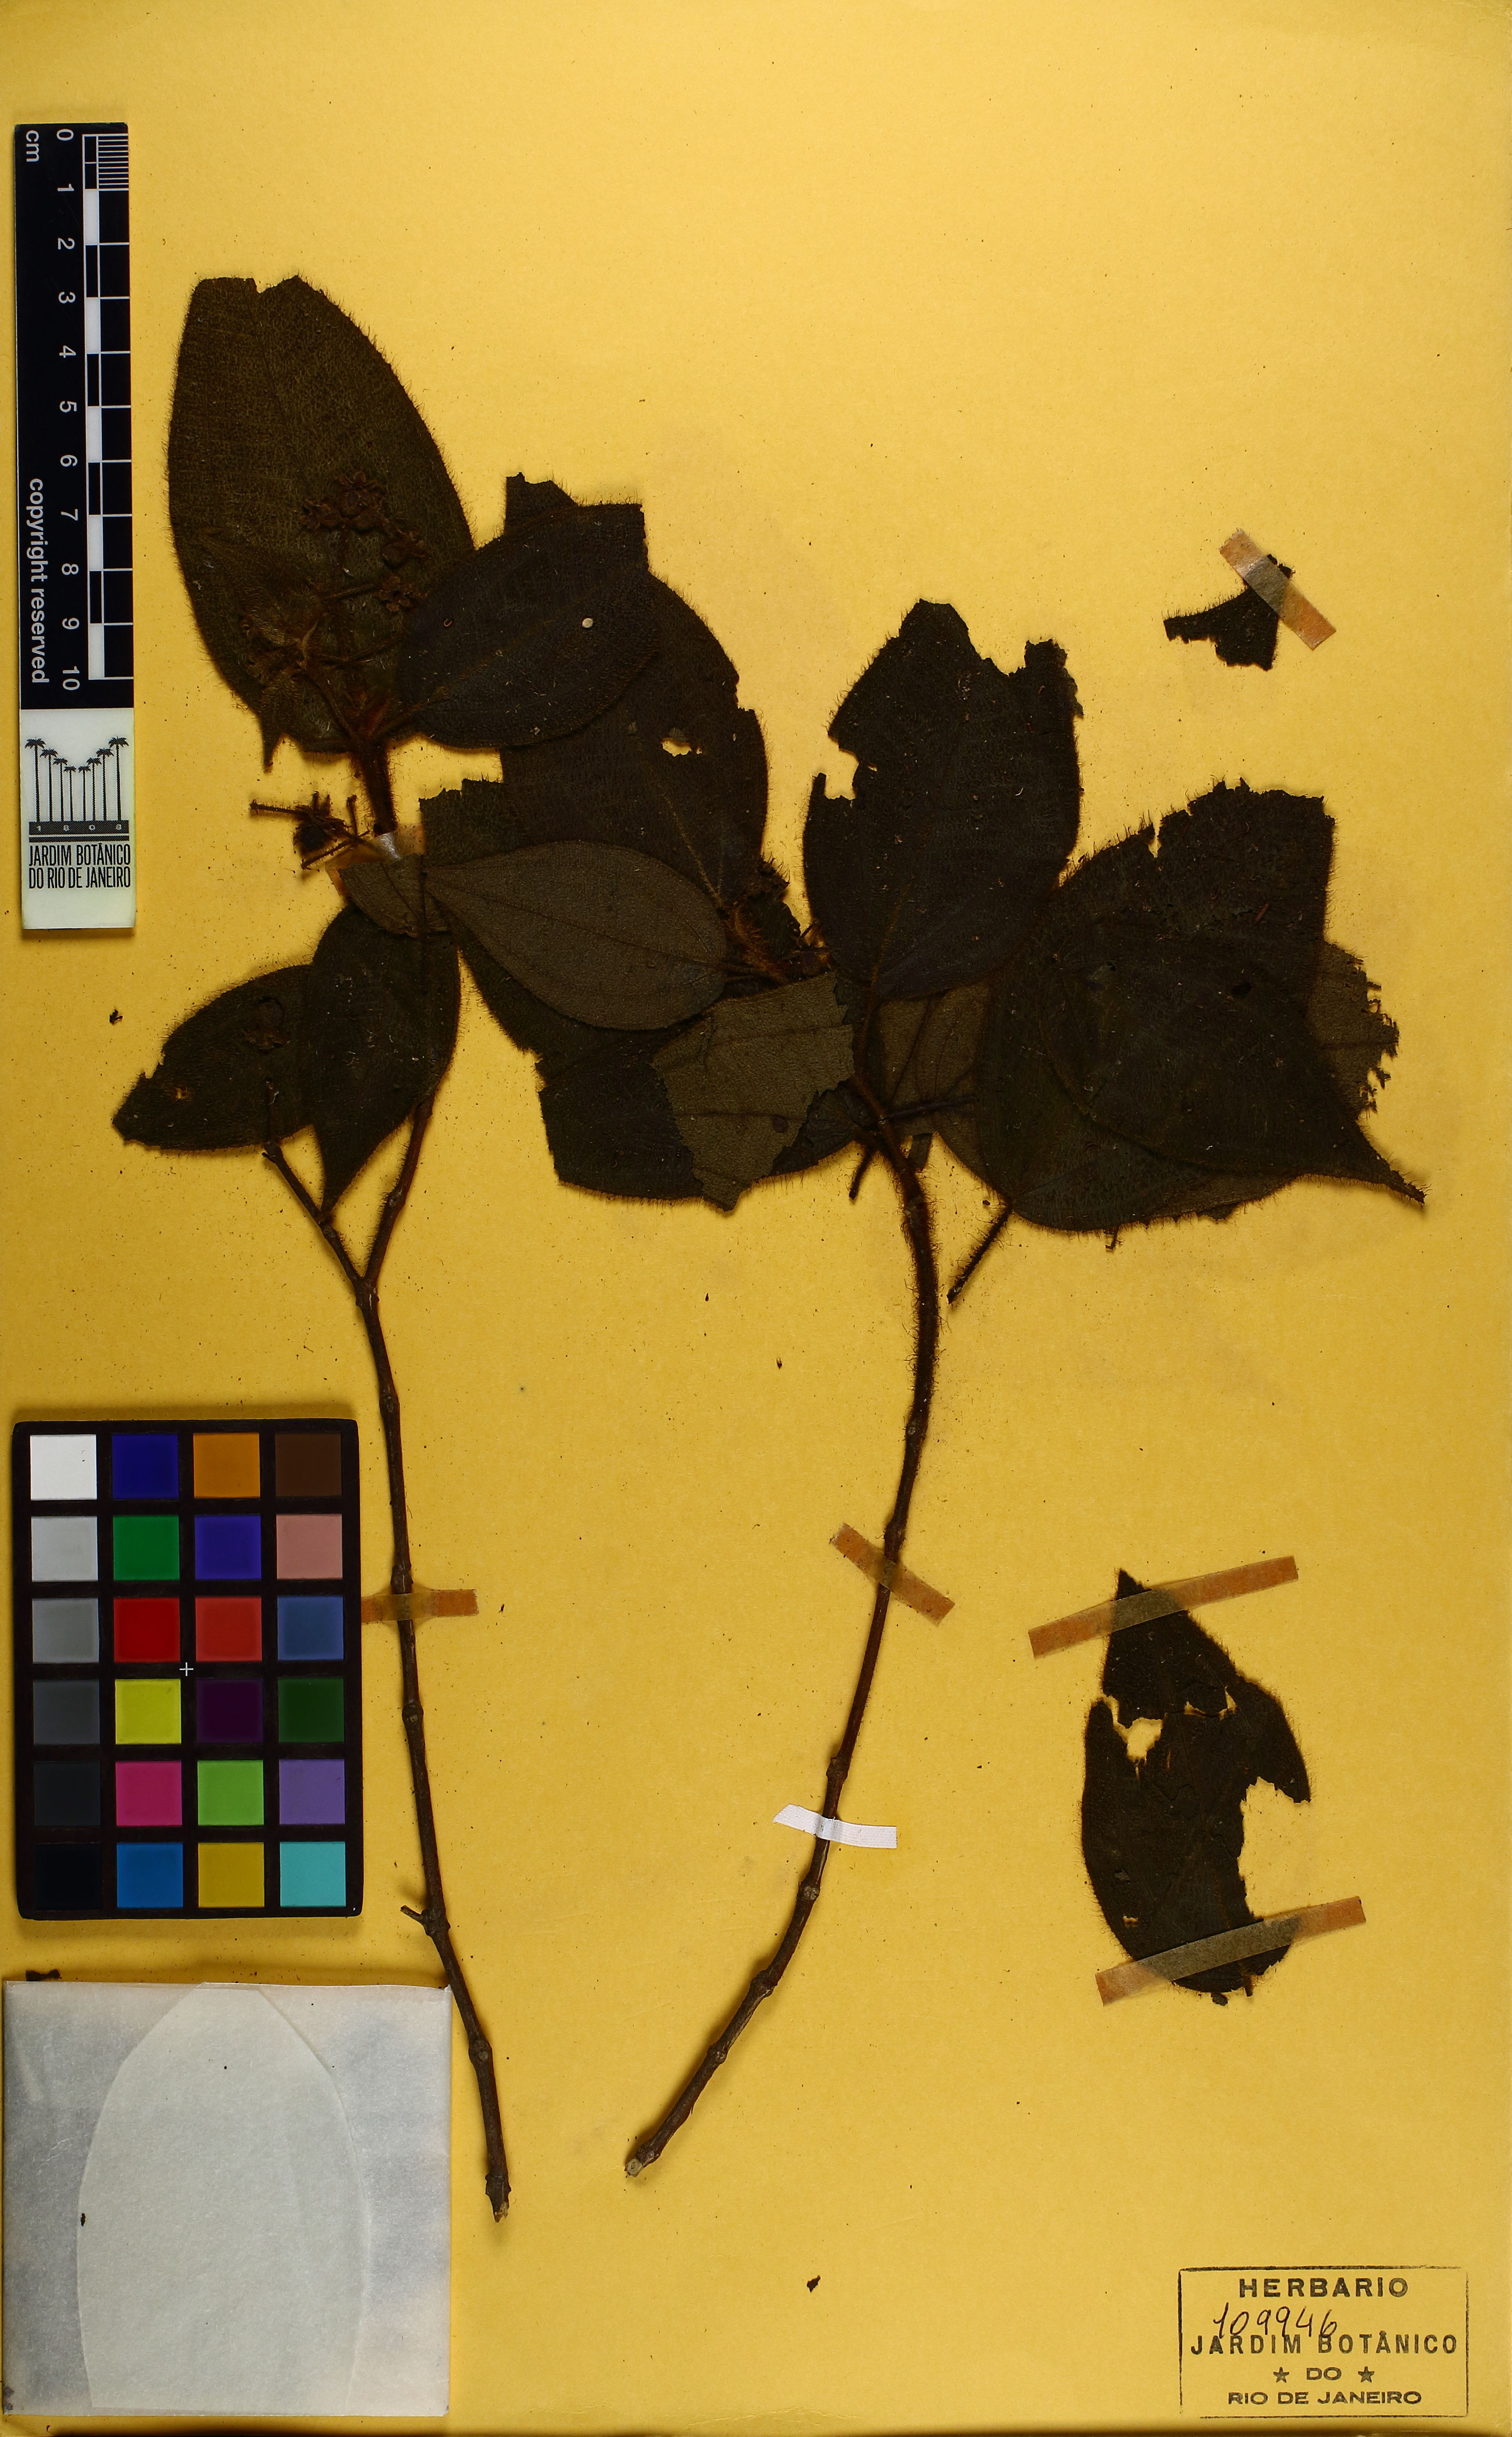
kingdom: Plantae
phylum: Tracheophyta
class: Magnoliopsida
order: Myrtales
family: Melastomataceae
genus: Miconia
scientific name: Miconia neourceolata
